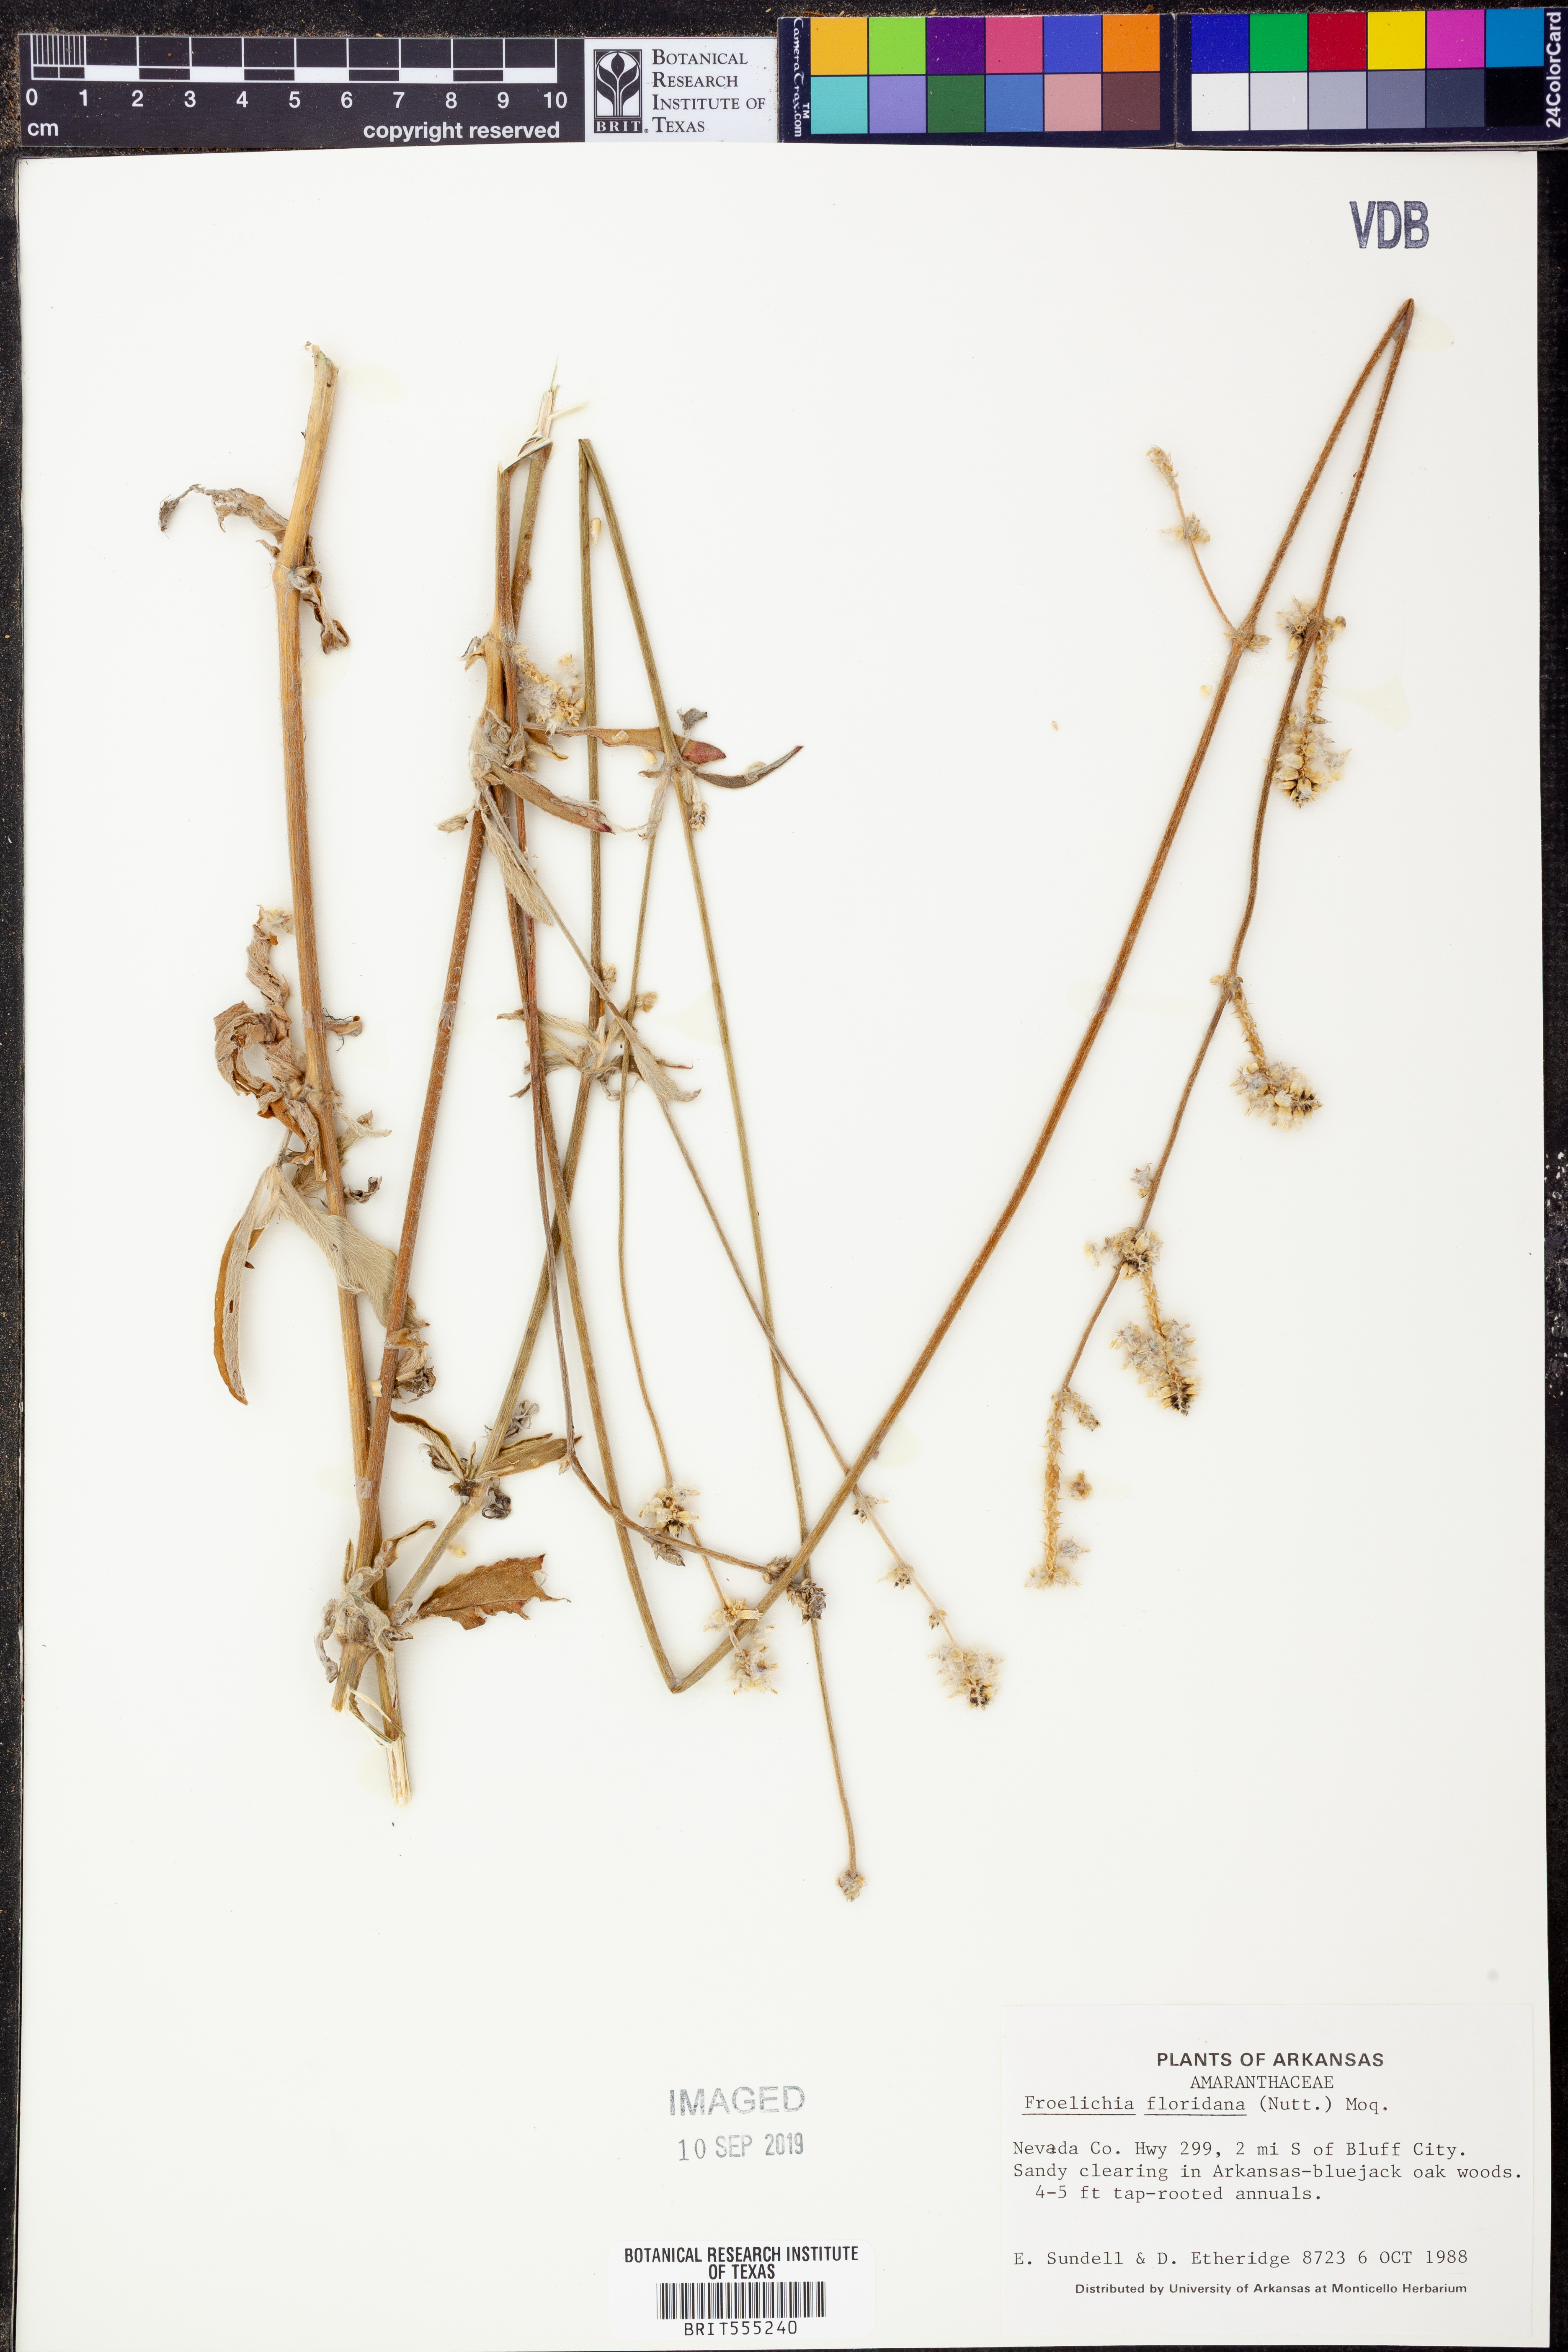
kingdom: Plantae
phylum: Tracheophyta
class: Magnoliopsida
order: Caryophyllales
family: Amaranthaceae
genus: Froelichia
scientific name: Froelichia floridana
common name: Florida snake-cotton
